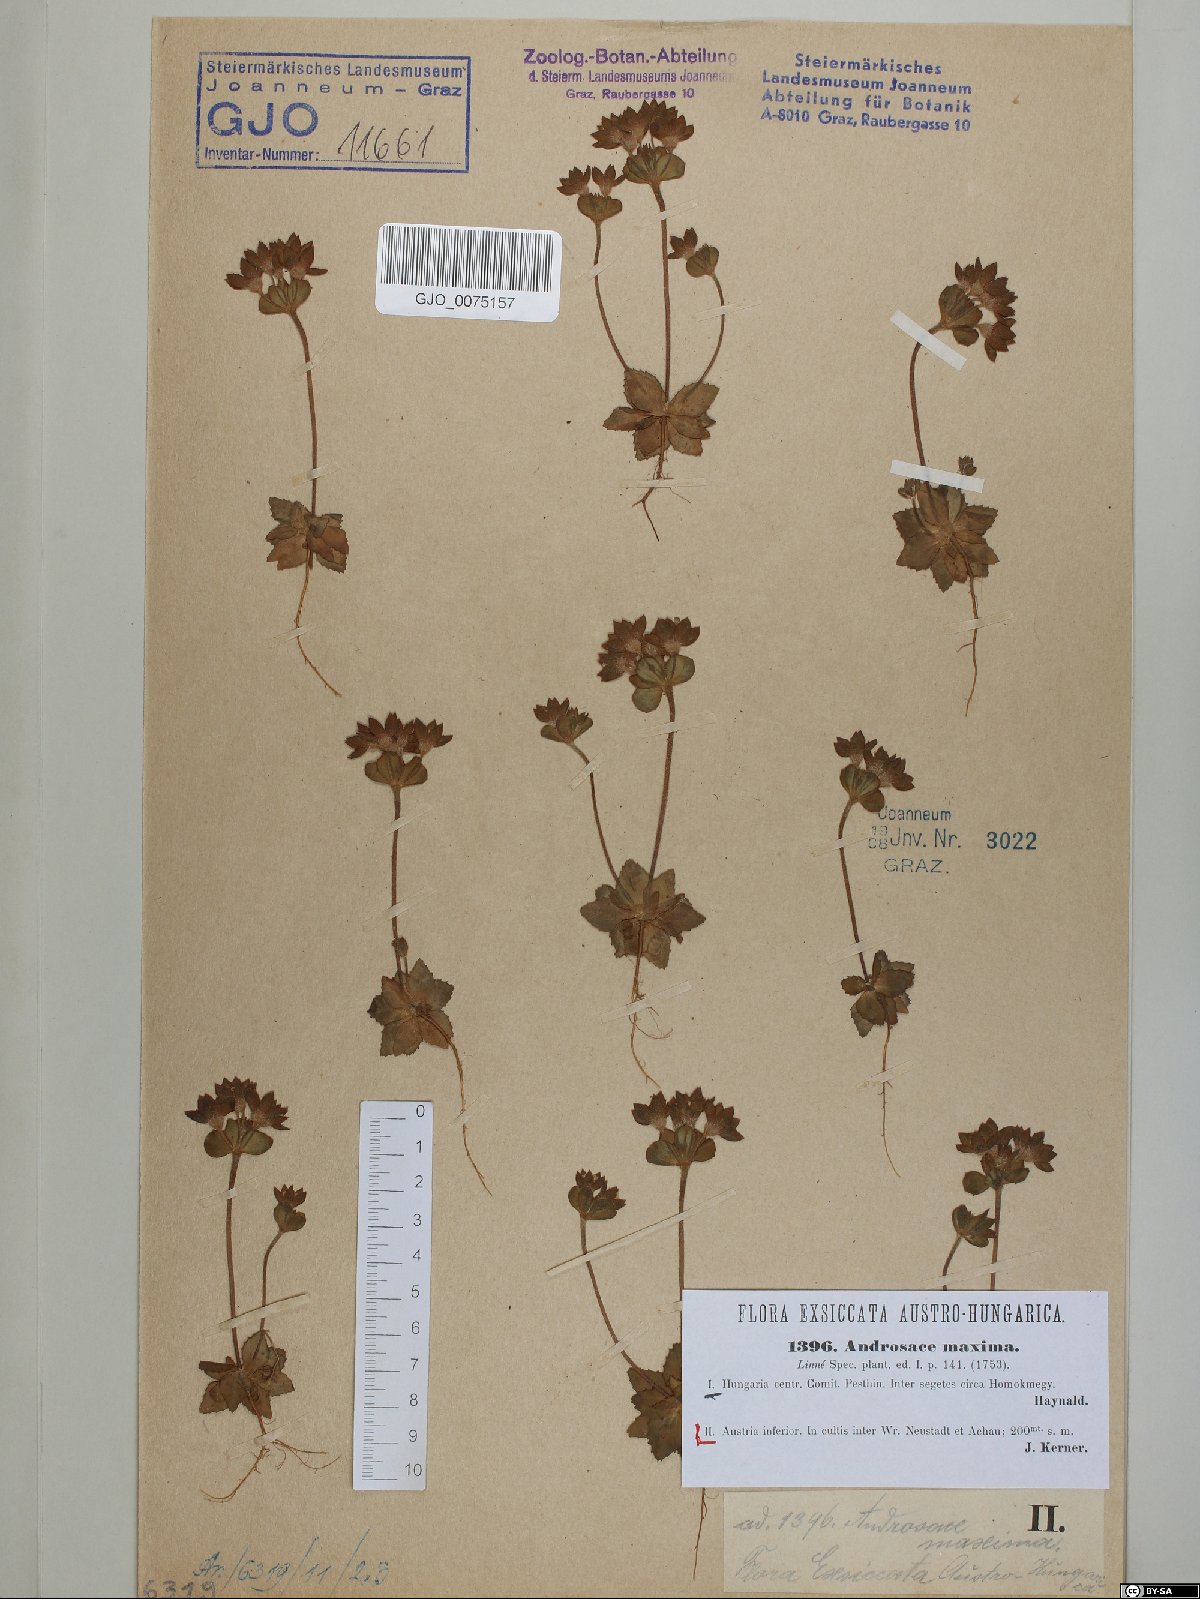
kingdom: Plantae
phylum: Tracheophyta
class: Magnoliopsida
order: Ericales
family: Primulaceae
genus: Androsace
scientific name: Androsace maxima
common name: Annual androsace
